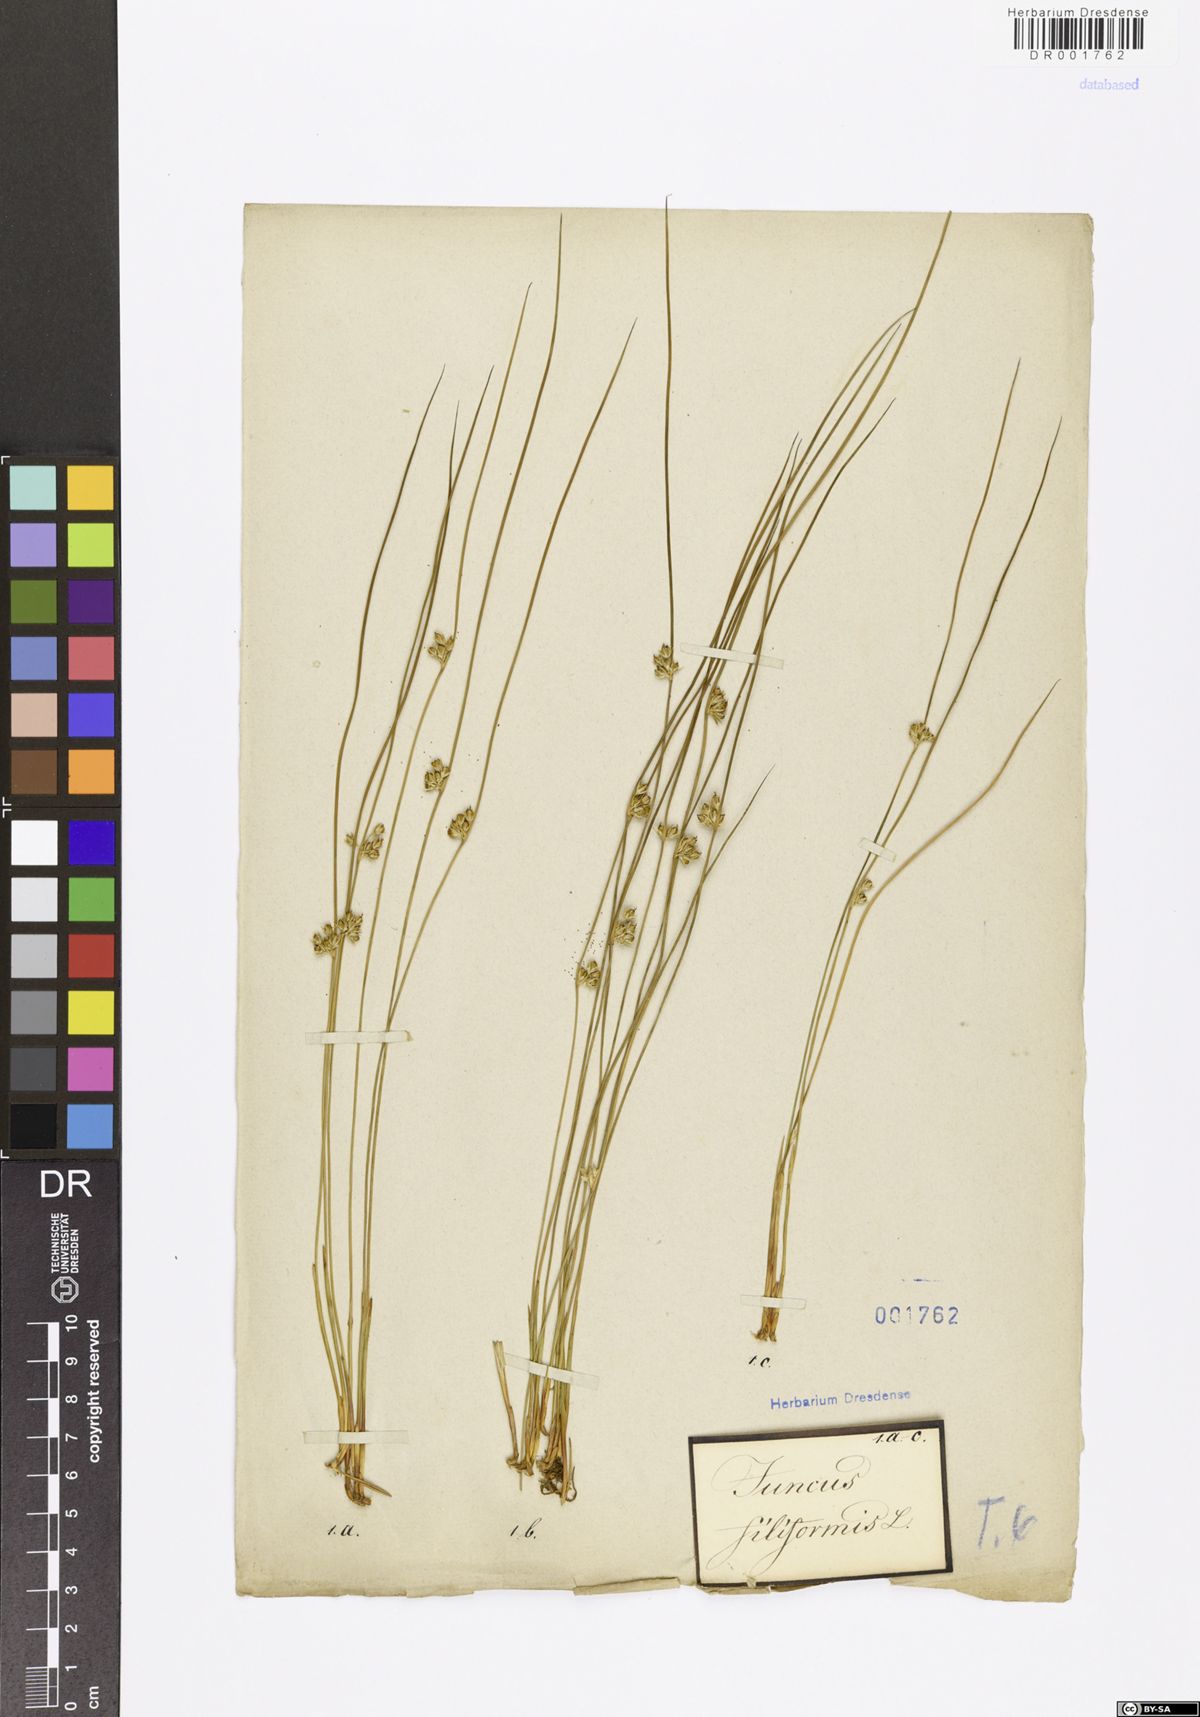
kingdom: Plantae
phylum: Tracheophyta
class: Liliopsida
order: Poales
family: Juncaceae
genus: Juncus
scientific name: Juncus inflexus
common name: Hard rush
